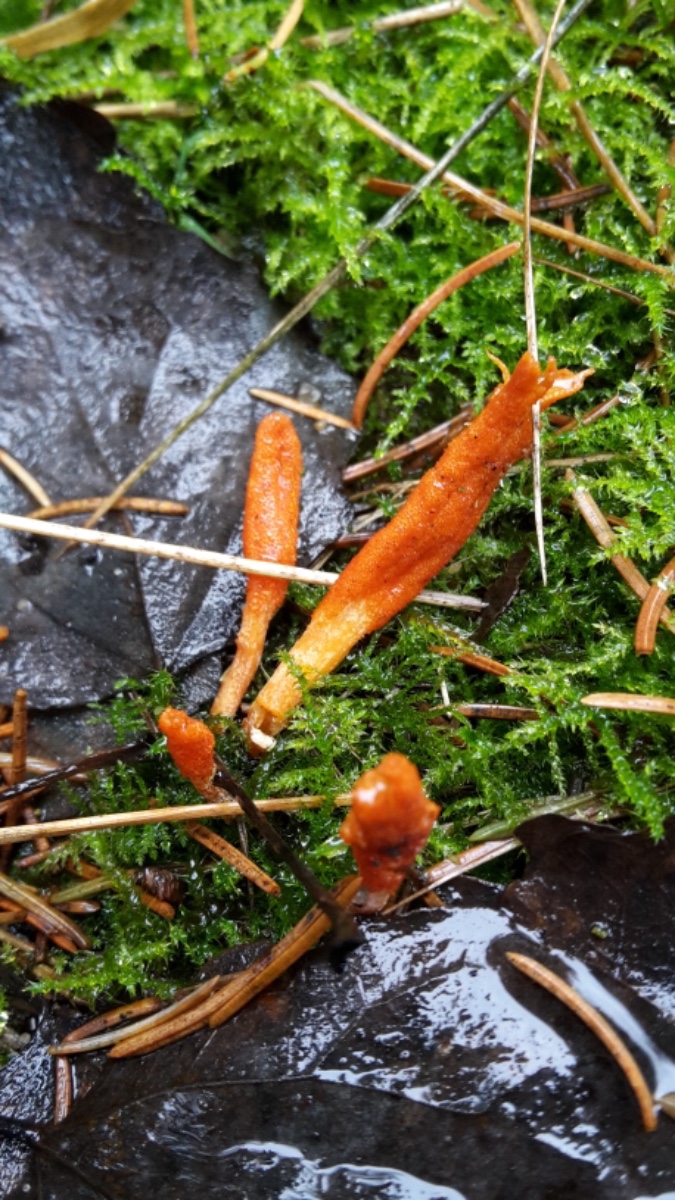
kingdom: Fungi
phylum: Ascomycota
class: Sordariomycetes
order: Hypocreales
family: Cordycipitaceae
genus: Cordyceps
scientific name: Cordyceps militaris
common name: puppe-snyltekølle
